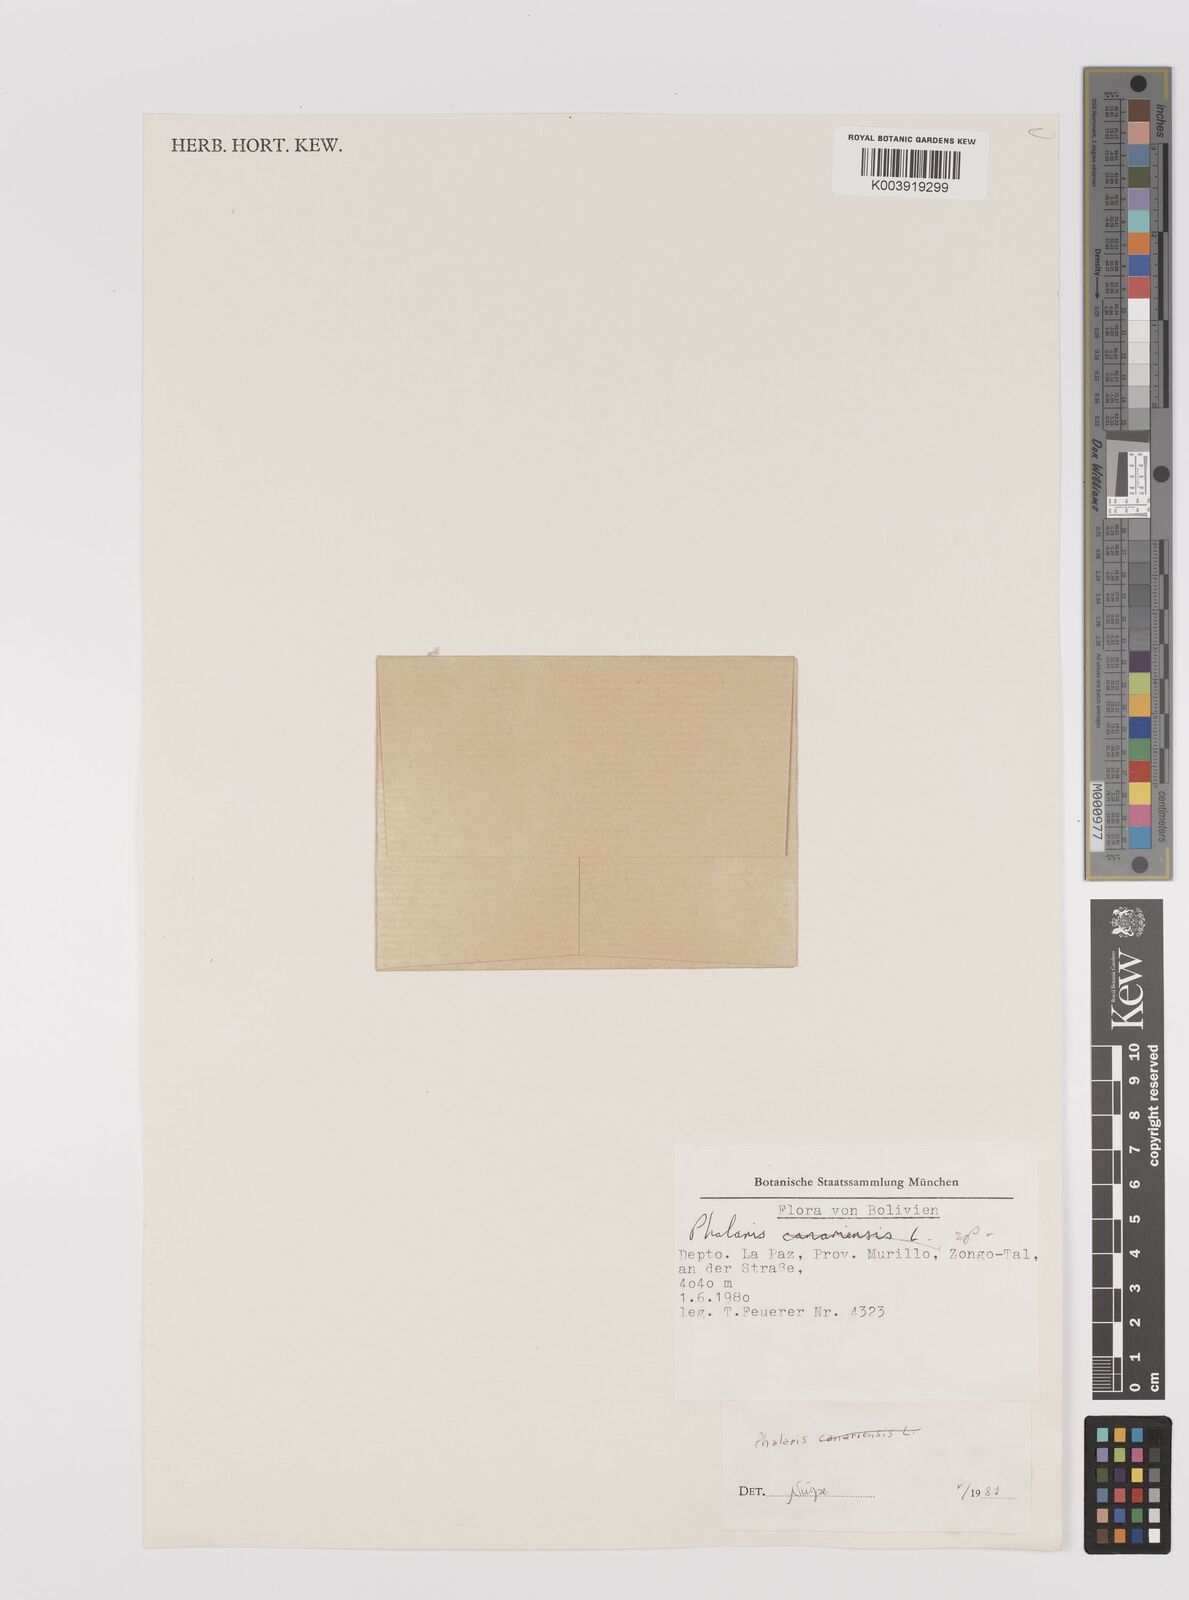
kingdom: Plantae
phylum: Tracheophyta
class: Liliopsida
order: Poales
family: Poaceae
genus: Poa
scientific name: Poa macusaniensis
